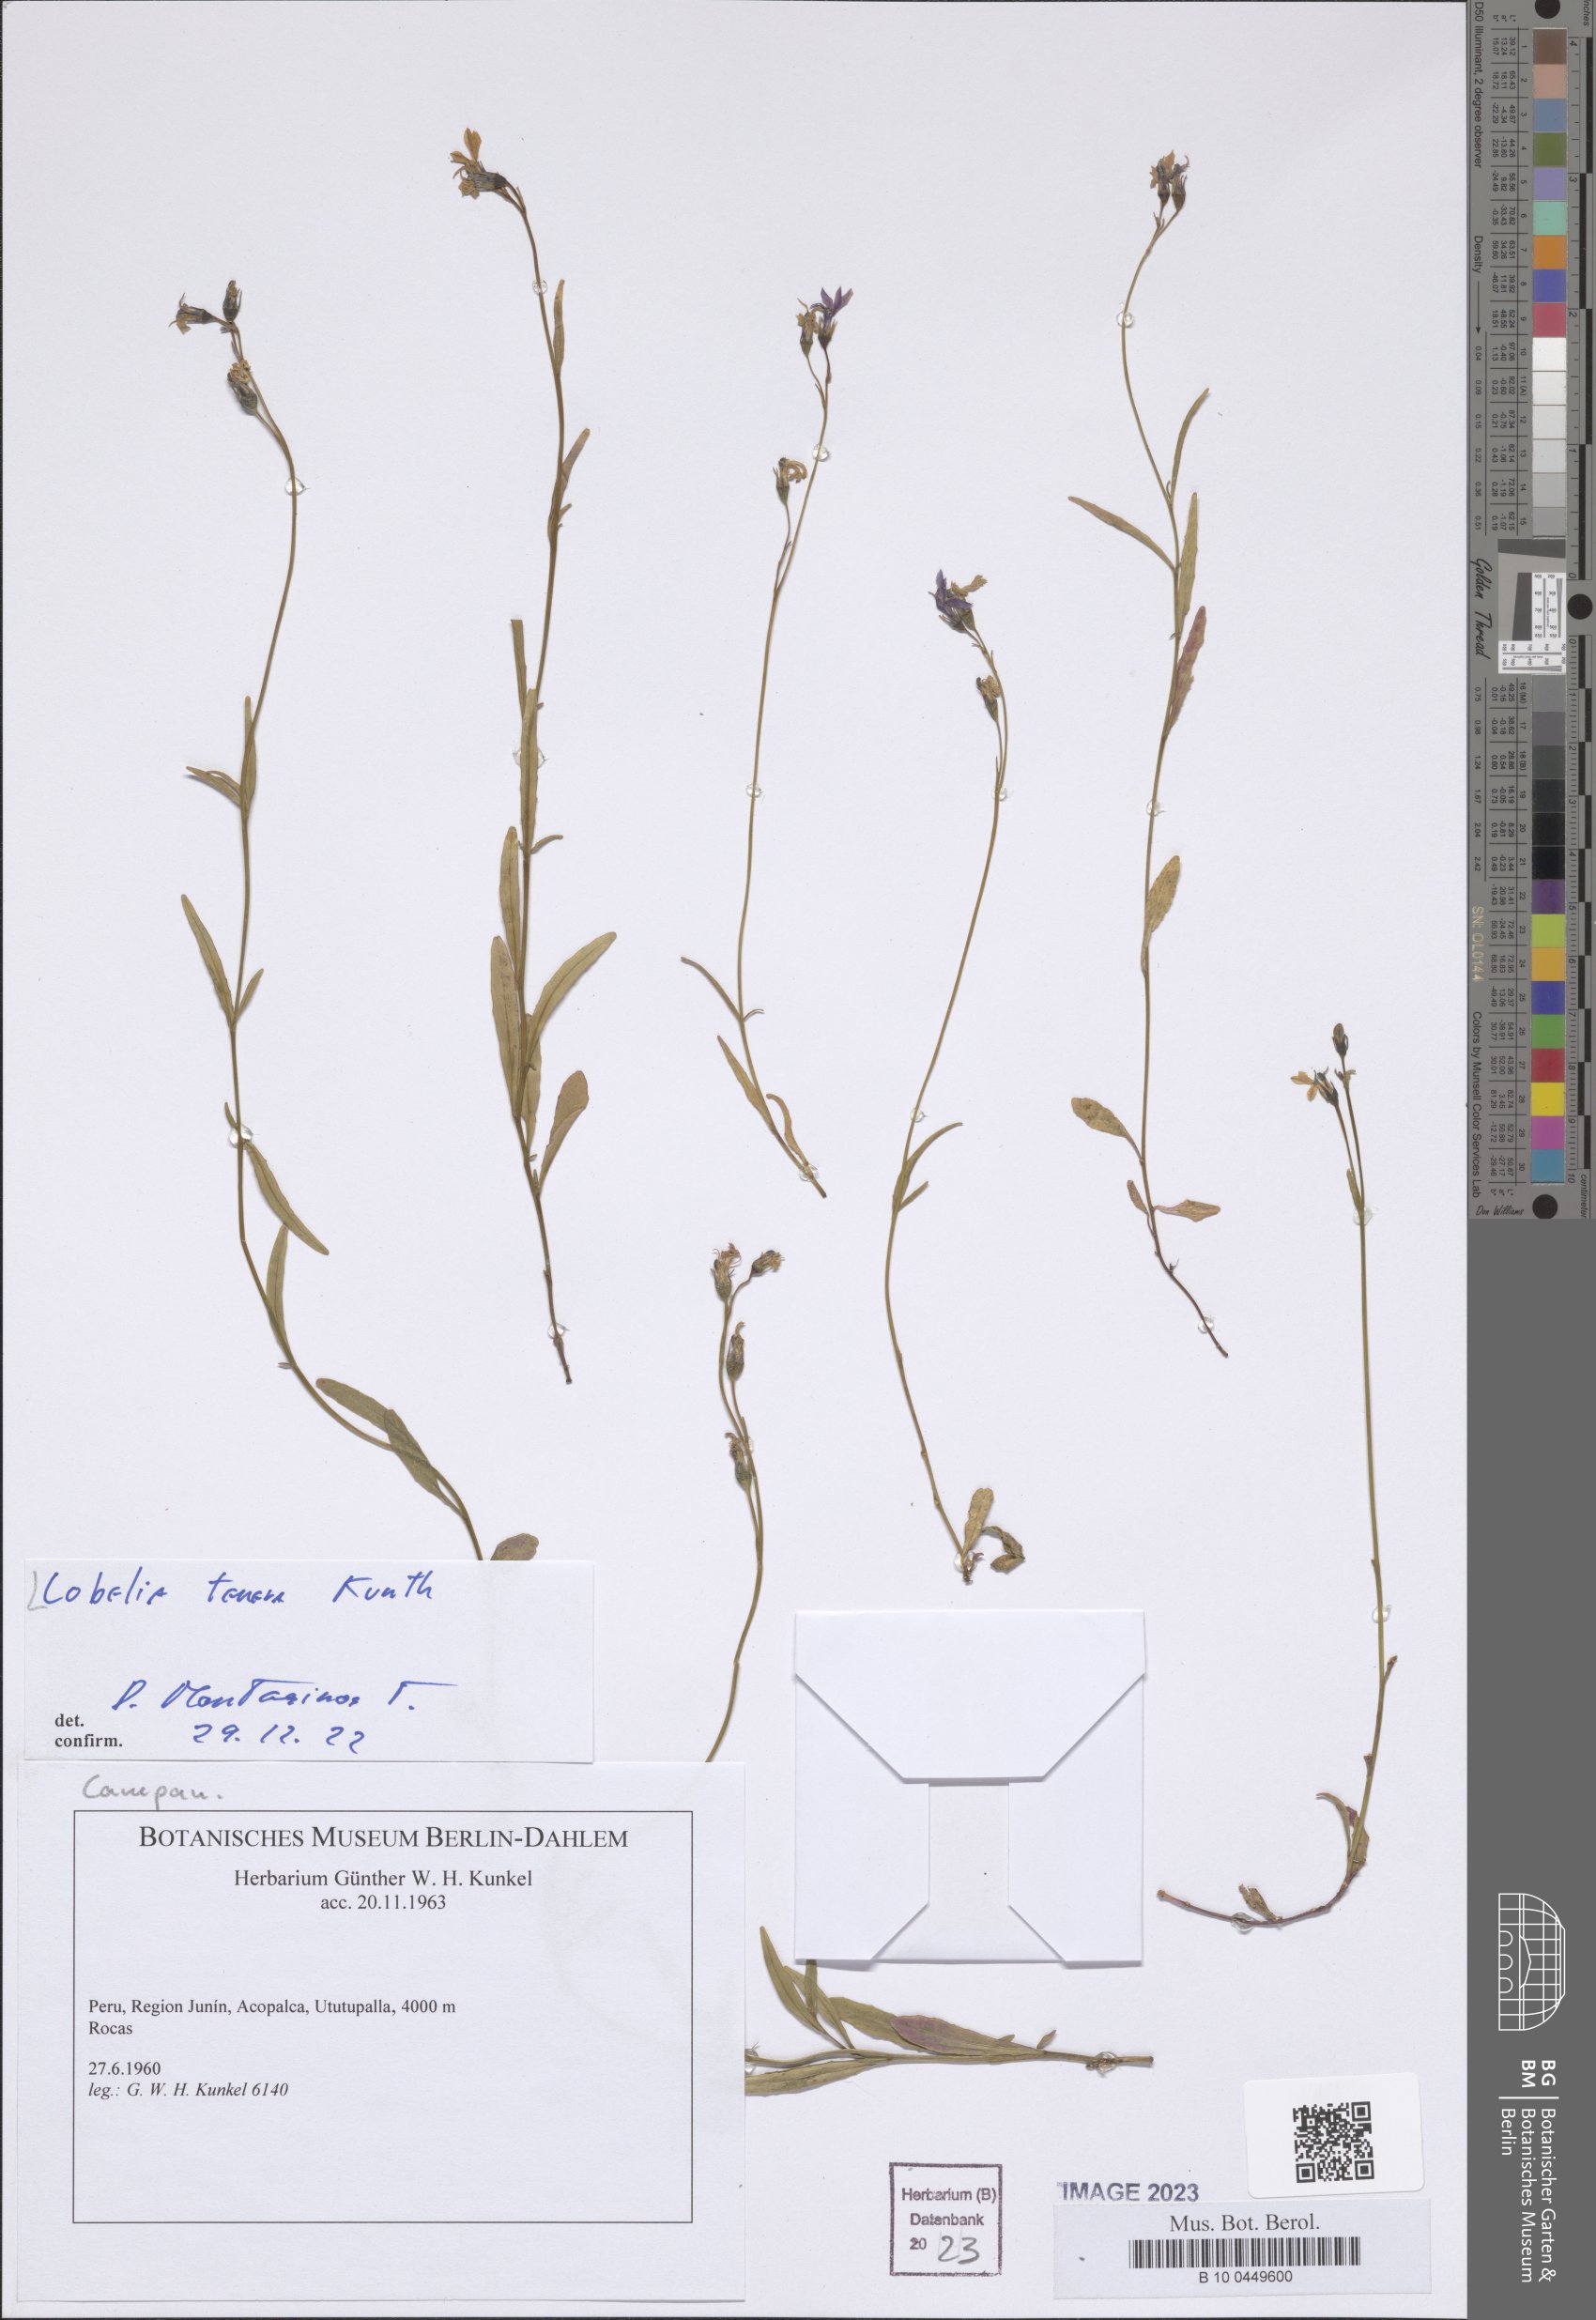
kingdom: Plantae
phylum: Tracheophyta
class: Magnoliopsida
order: Asterales
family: Campanulaceae
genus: Lobelia
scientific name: Lobelia tenera
